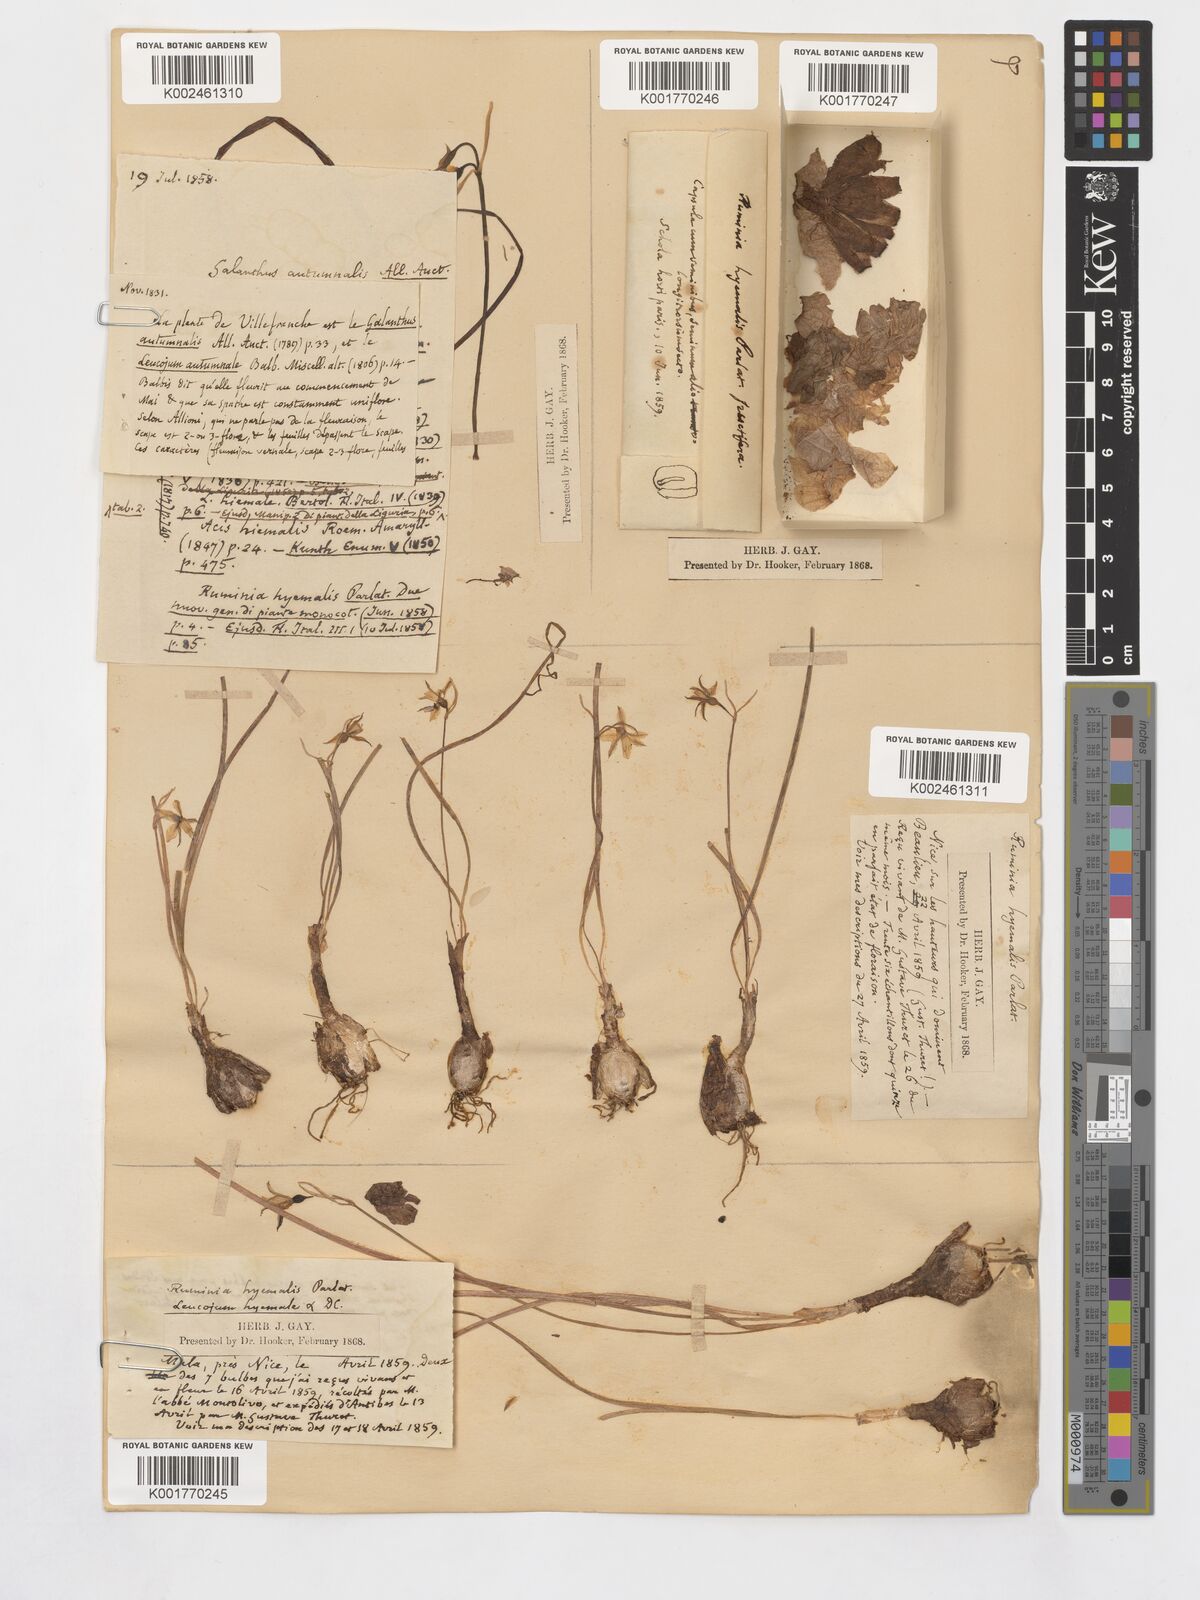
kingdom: Plantae
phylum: Tracheophyta
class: Liliopsida
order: Asparagales
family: Amaryllidaceae
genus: Acis
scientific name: Acis rosea
